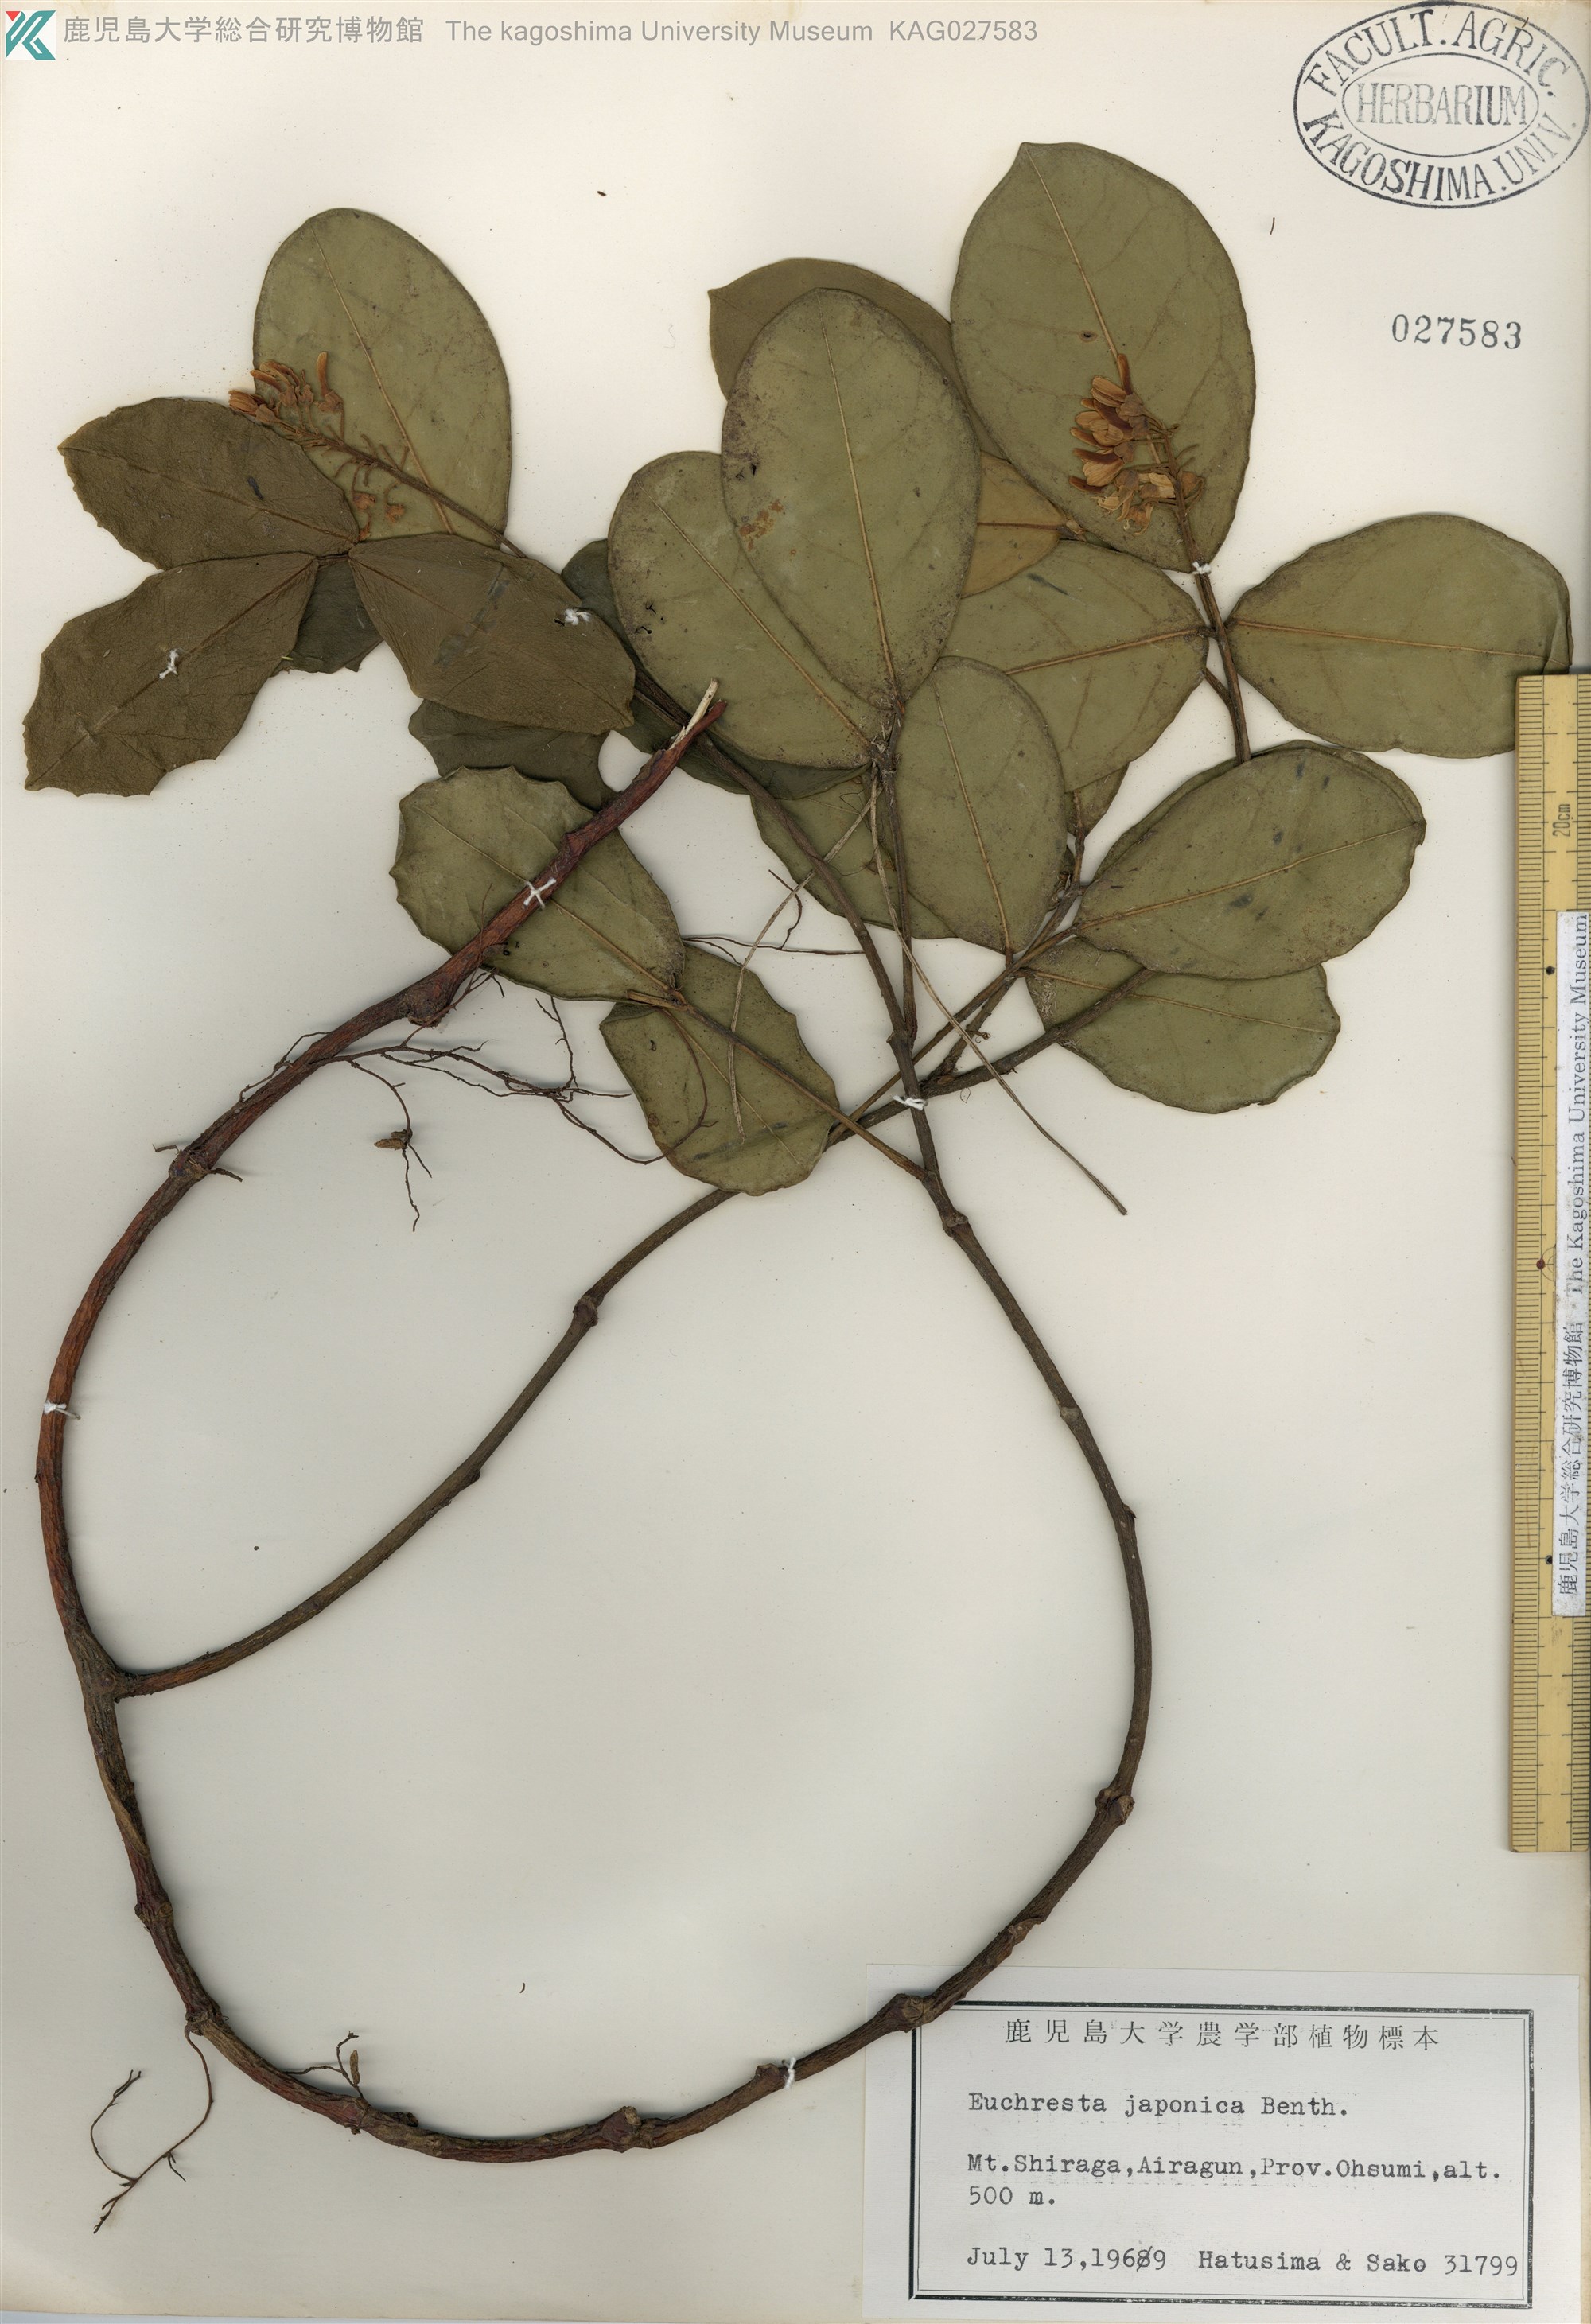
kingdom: Plantae
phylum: Tracheophyta
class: Magnoliopsida
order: Fabales
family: Fabaceae
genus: Euchresta
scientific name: Euchresta japonica
